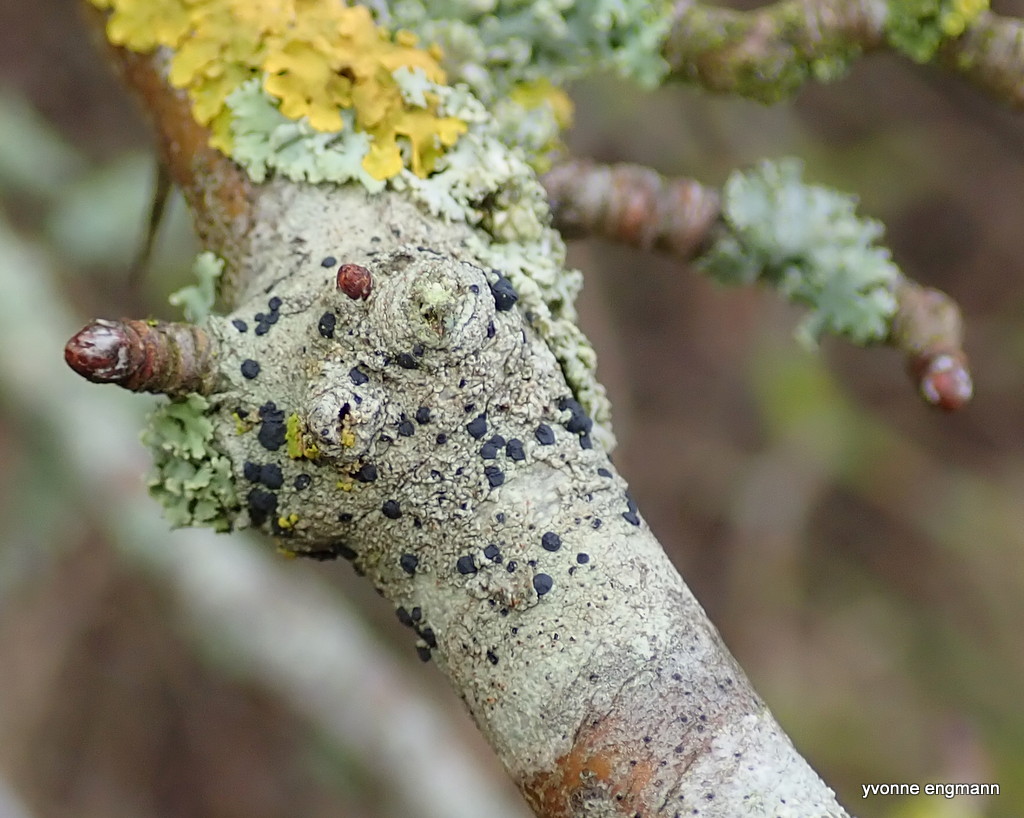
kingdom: Fungi
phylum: Ascomycota
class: Lecanoromycetes
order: Lecanorales
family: Lecanoraceae
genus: Lecidella
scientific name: Lecidella elaeochroma
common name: grågrøn skivelav
